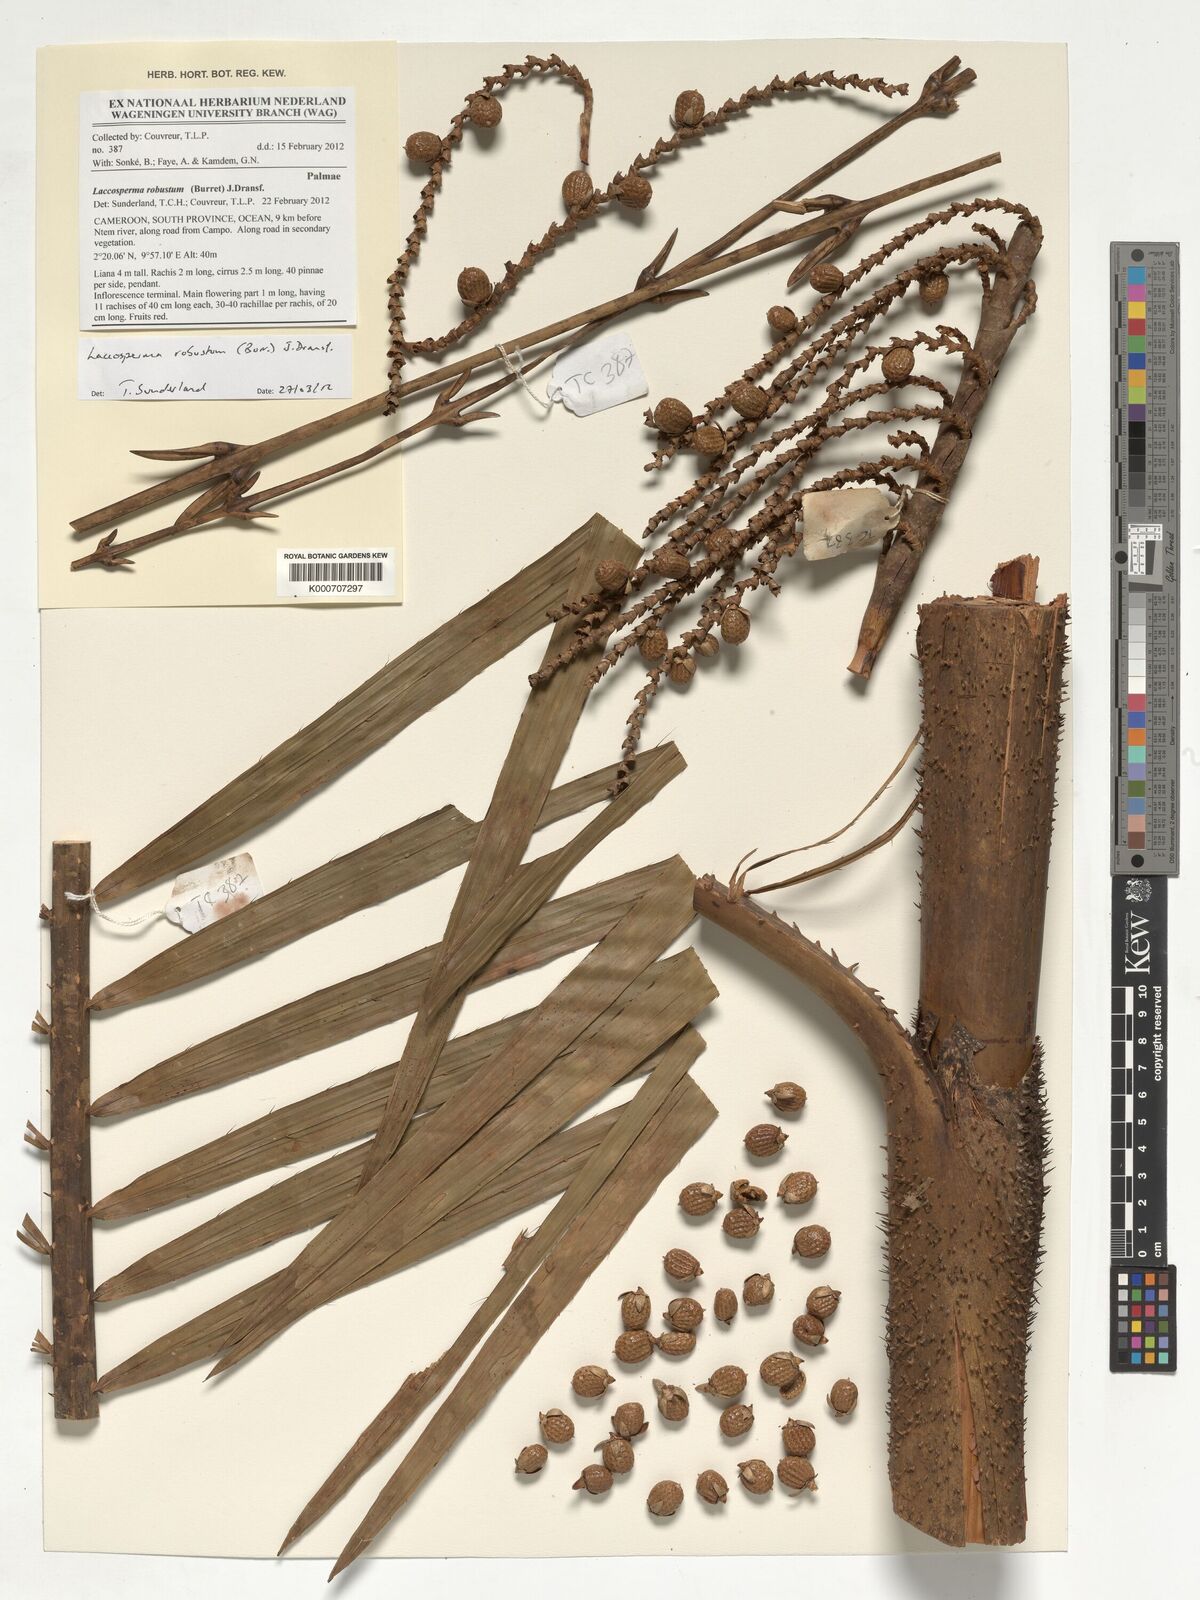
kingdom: Plantae
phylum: Tracheophyta
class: Liliopsida
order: Arecales
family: Arecaceae
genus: Laccosperma
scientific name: Laccosperma robustum
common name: Rattan
